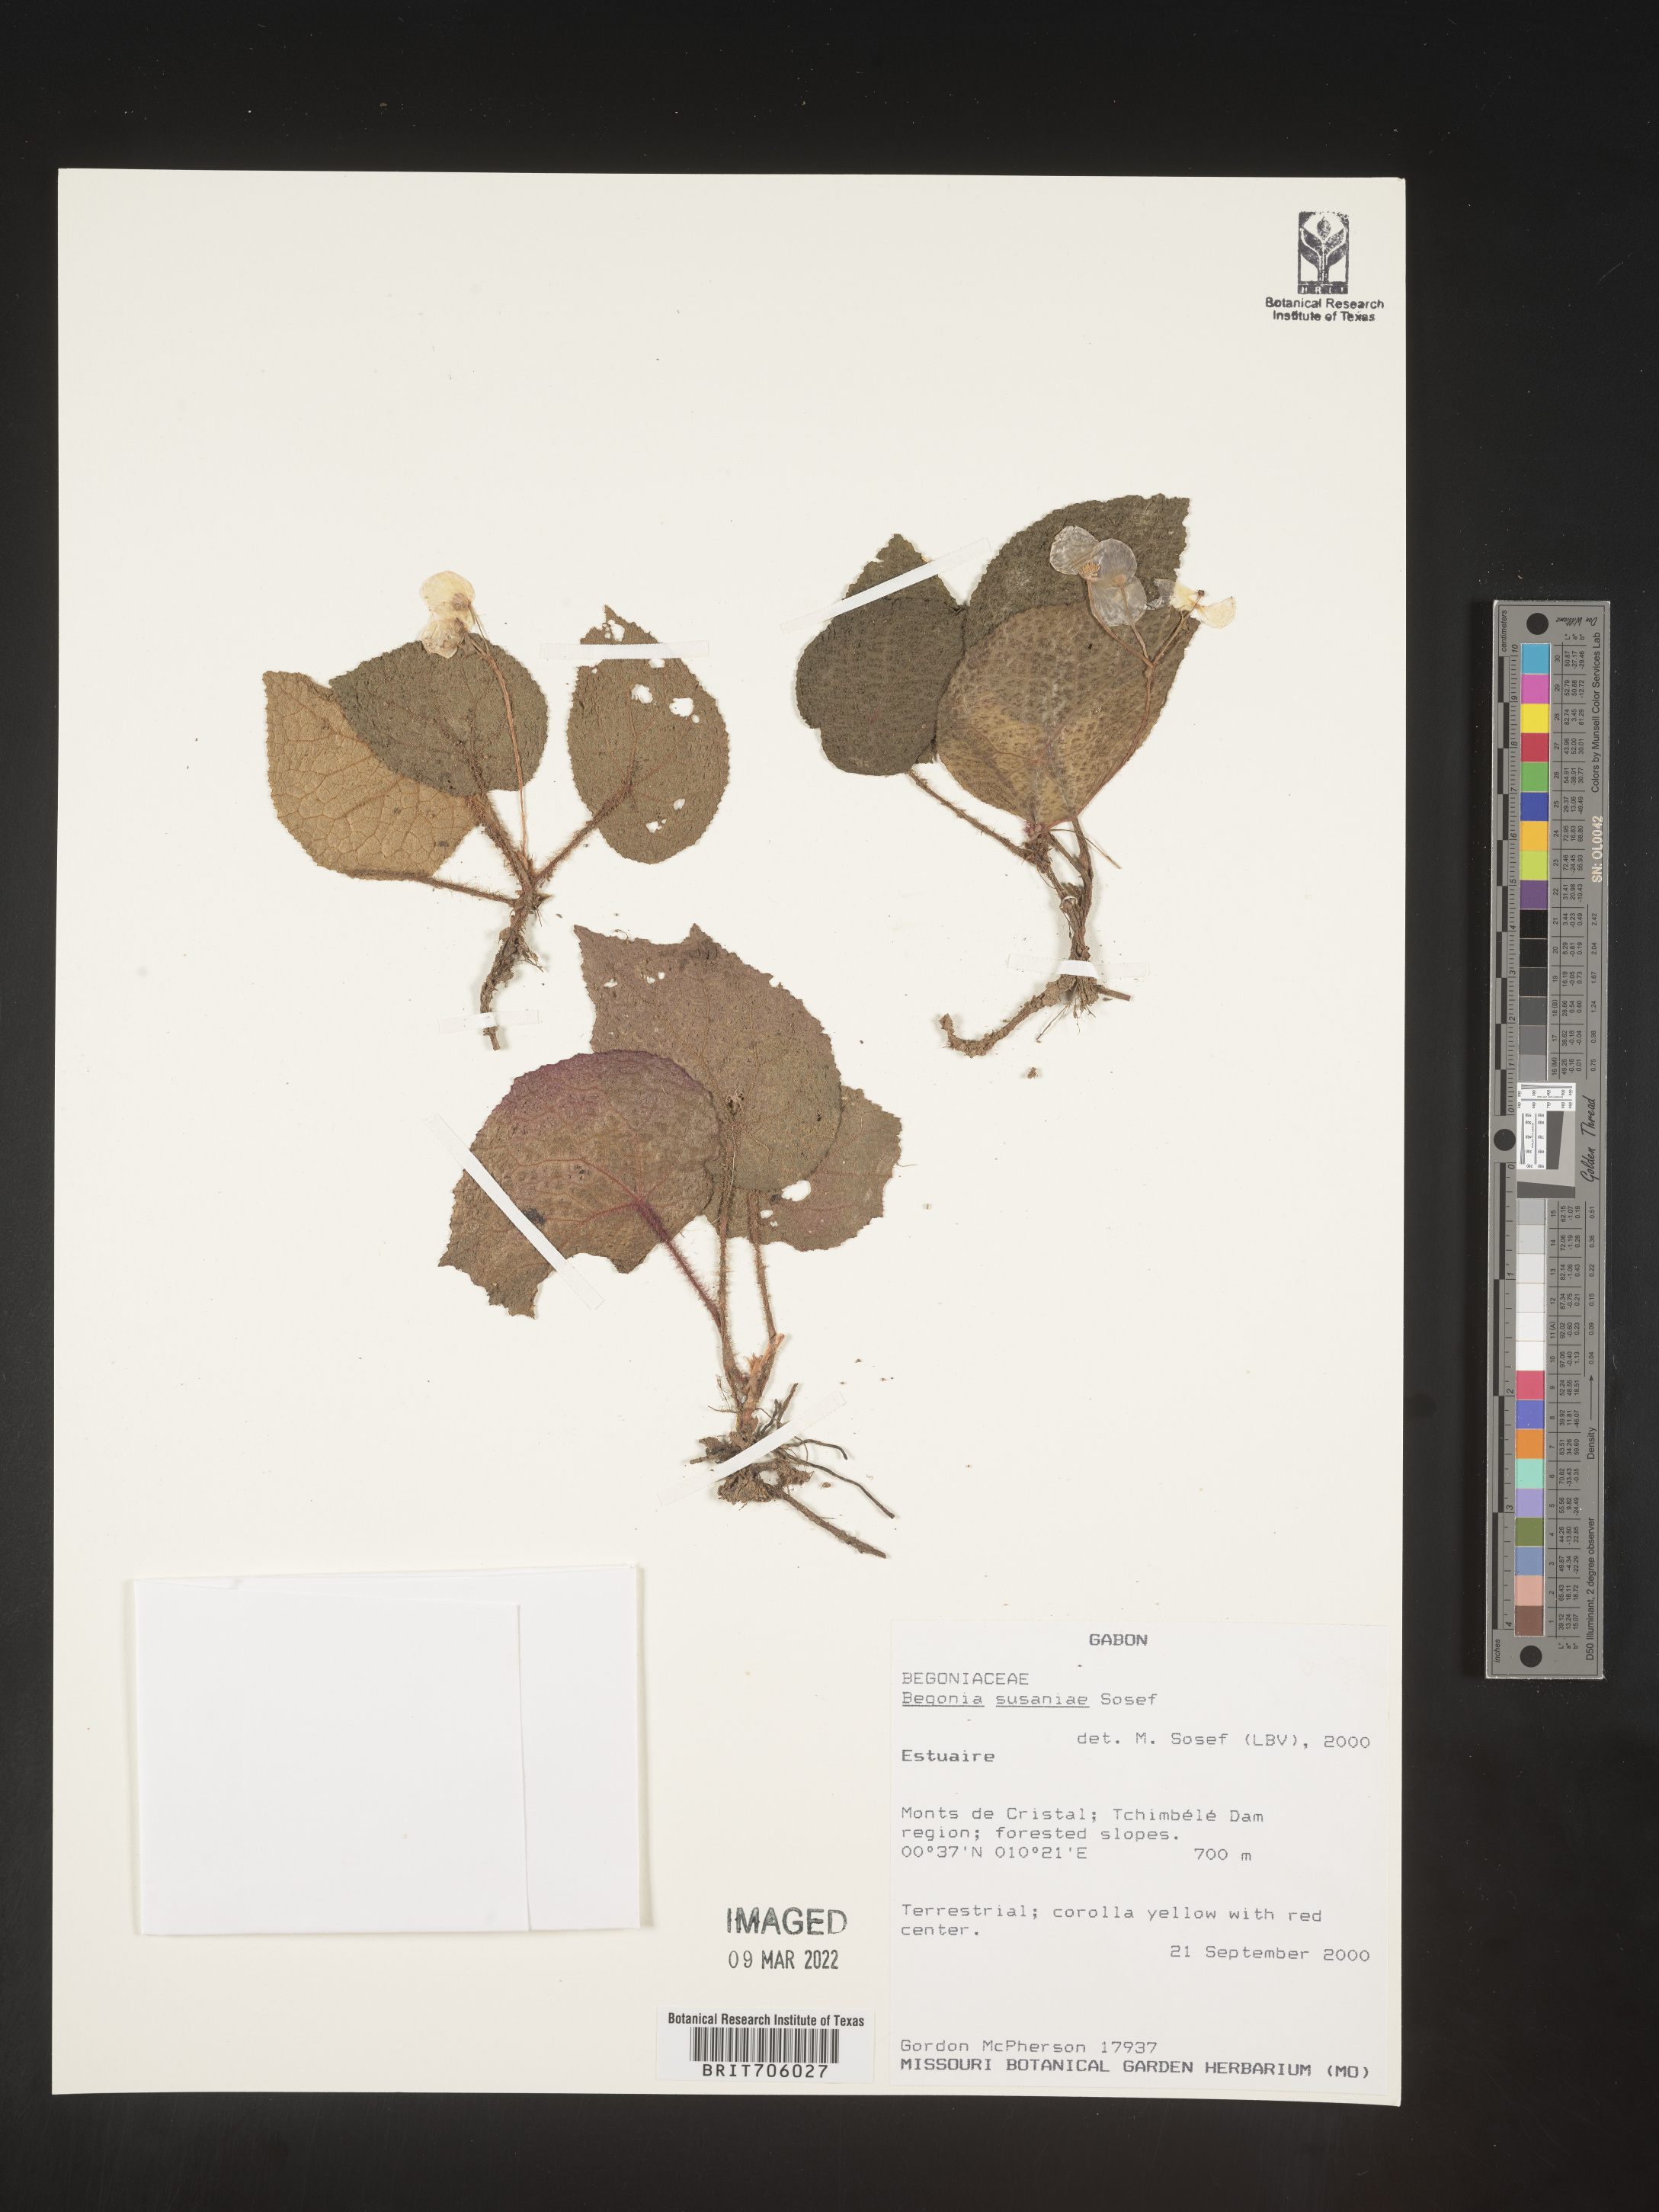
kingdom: Plantae
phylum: Tracheophyta
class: Magnoliopsida
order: Cucurbitales
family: Begoniaceae
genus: Begonia
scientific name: Begonia
